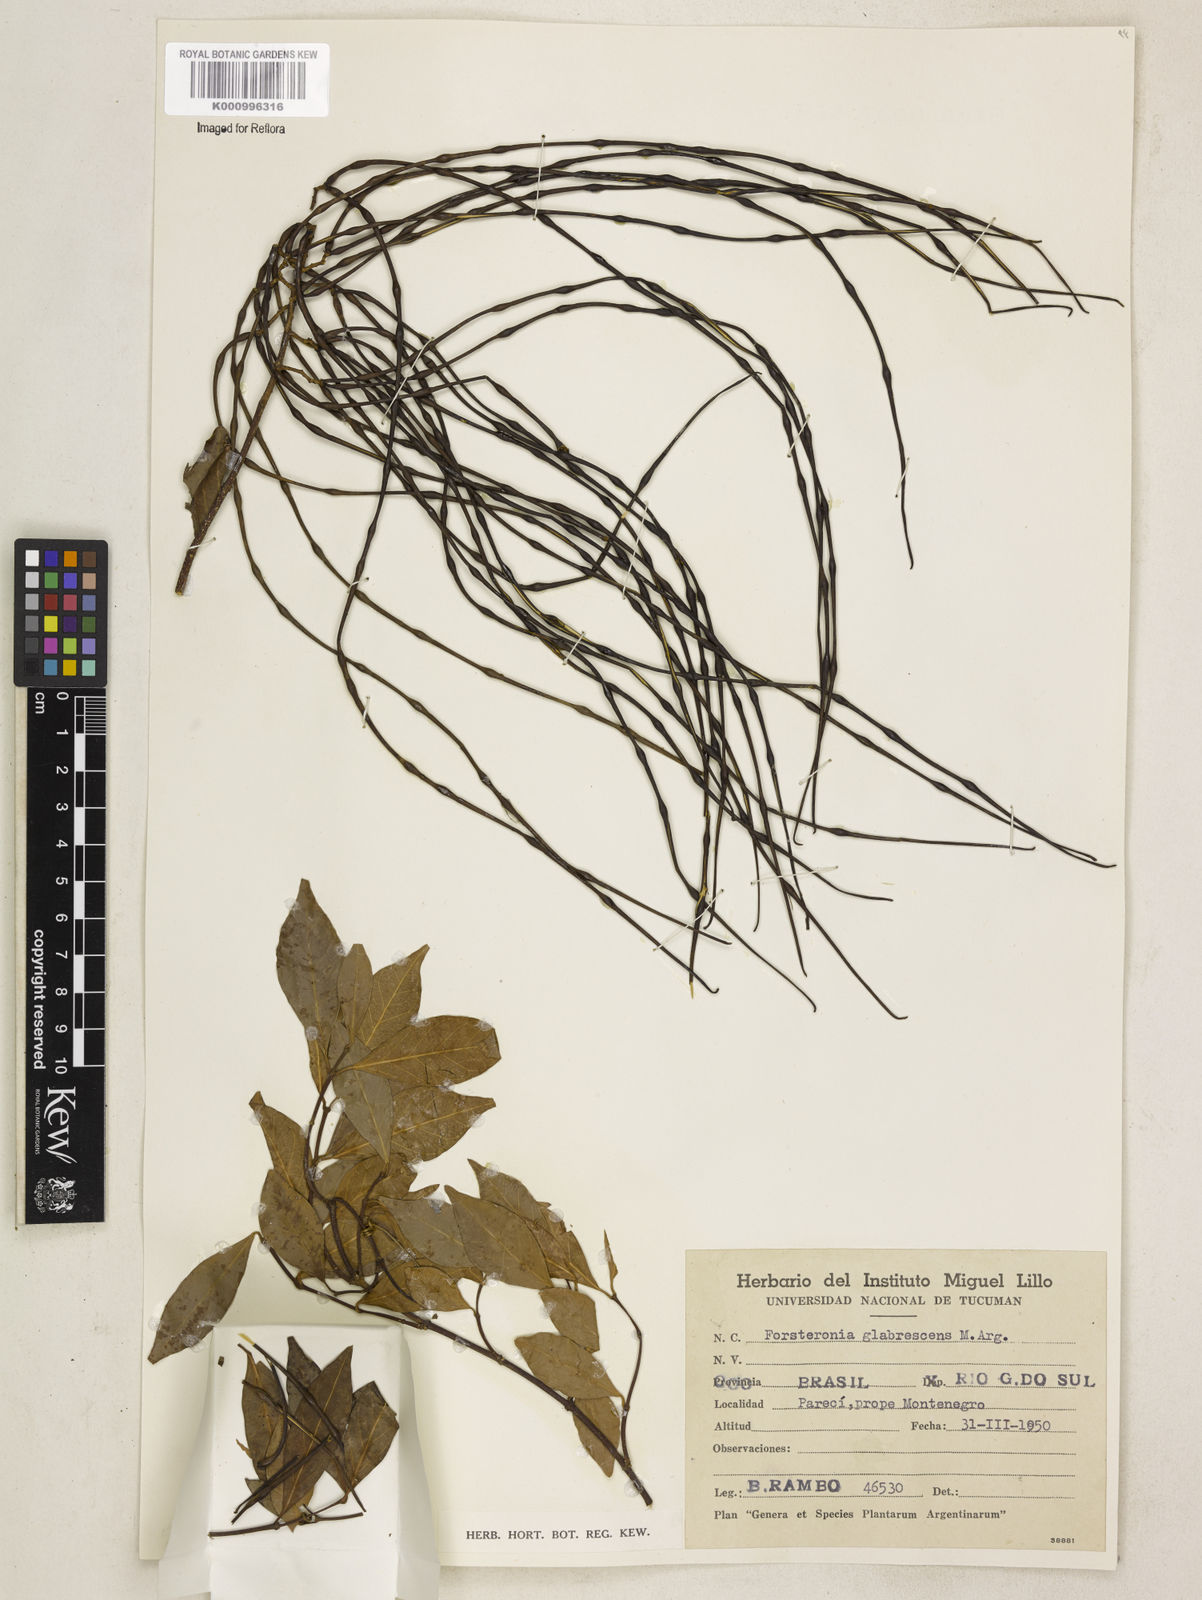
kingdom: Plantae
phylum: Tracheophyta
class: Magnoliopsida
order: Gentianales
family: Apocynaceae
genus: Forsteronia
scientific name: Forsteronia
